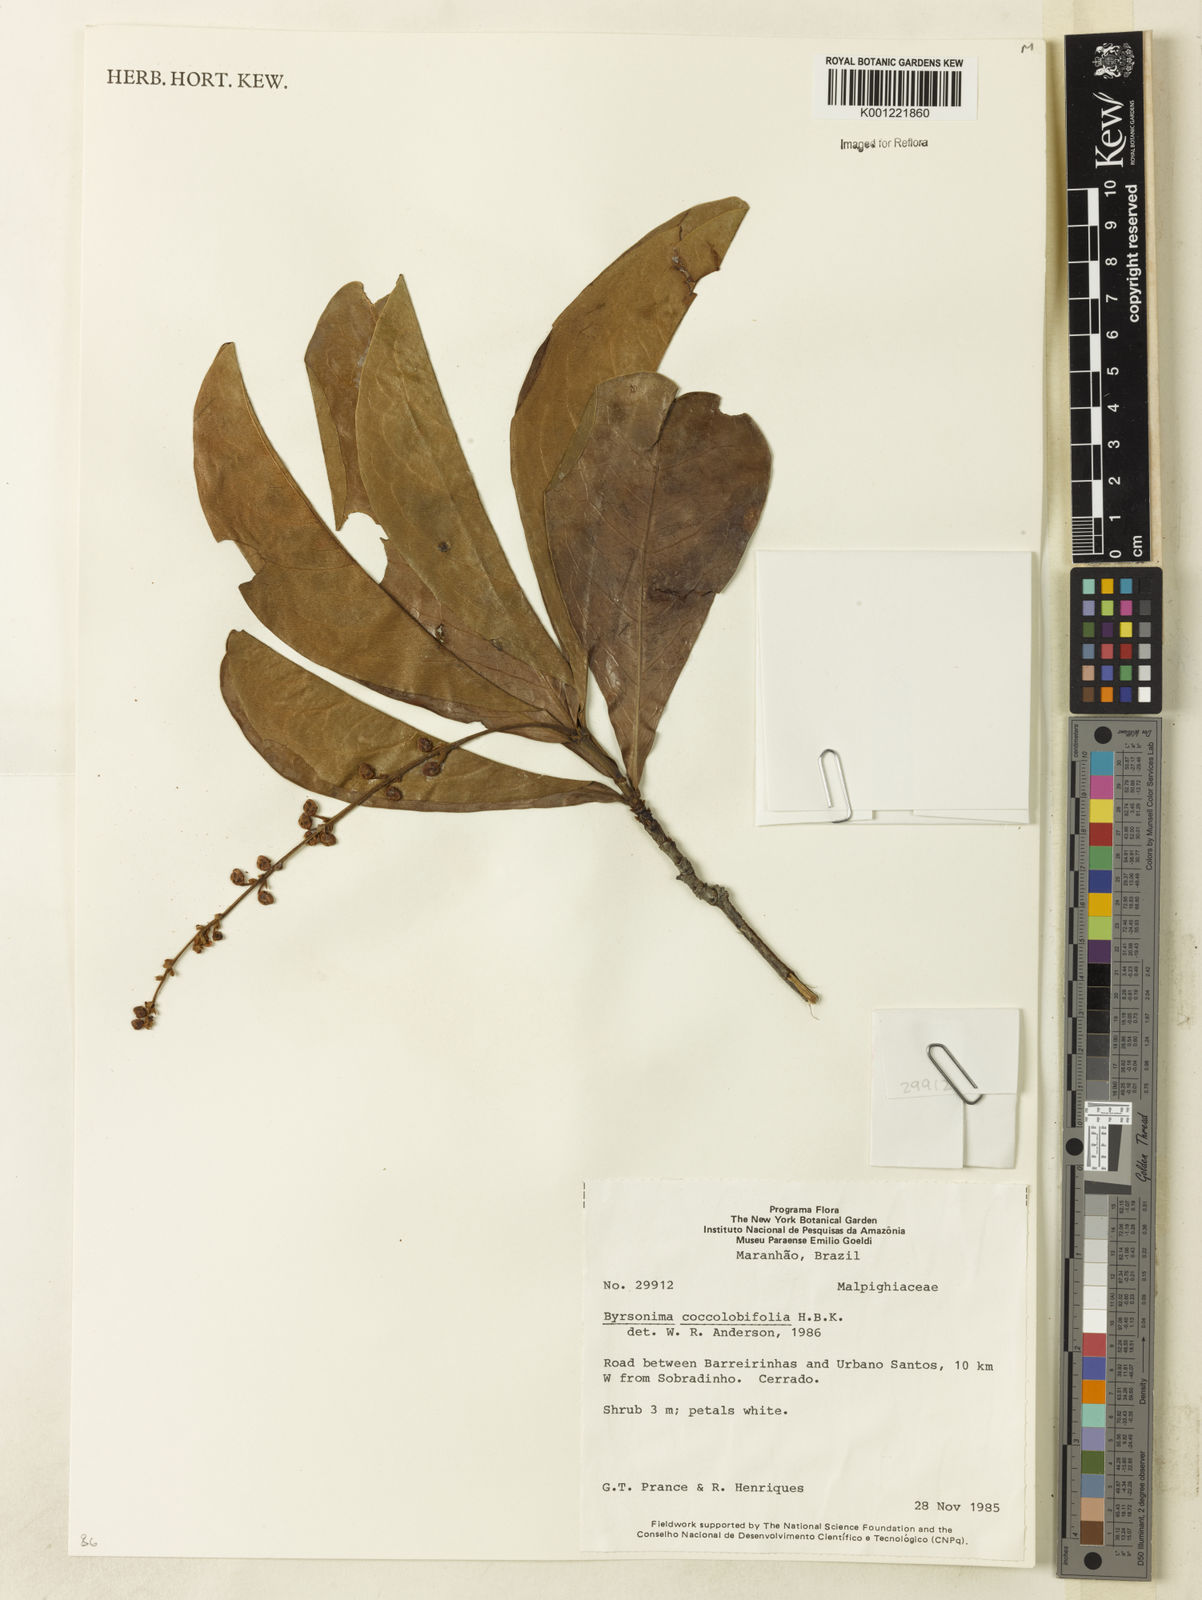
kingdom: Plantae
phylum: Tracheophyta
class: Magnoliopsida
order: Malpighiales
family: Malpighiaceae
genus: Byrsonima
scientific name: Byrsonima coccolobifolia
